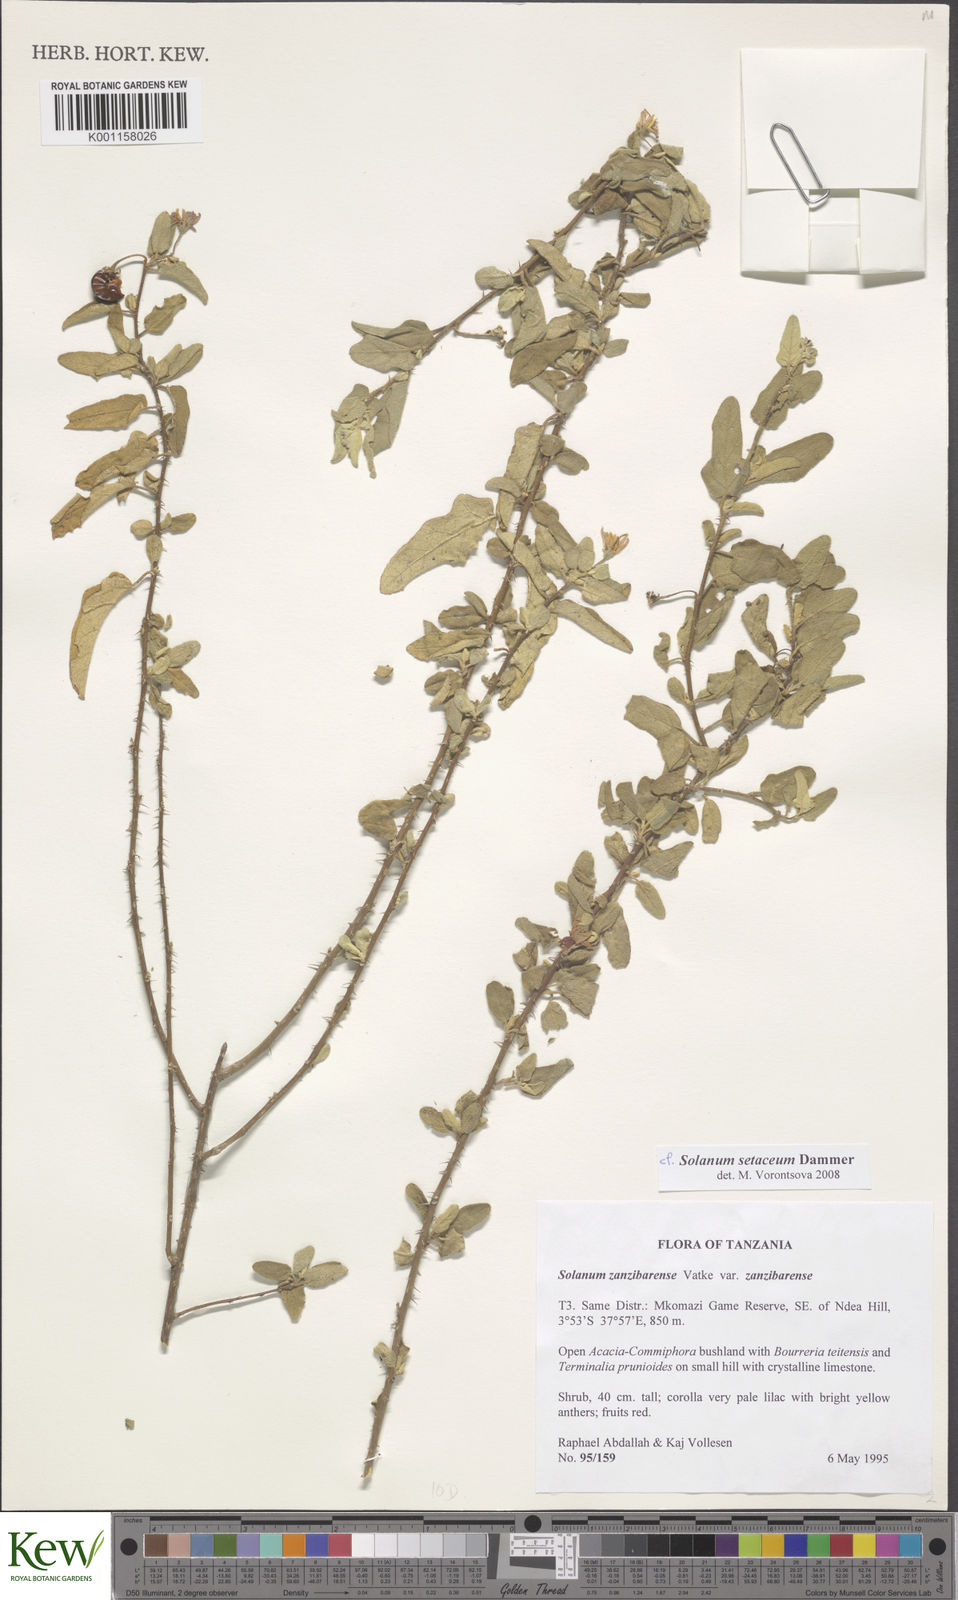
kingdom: Plantae
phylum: Tracheophyta
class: Magnoliopsida
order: Solanales
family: Solanaceae
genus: Solanum
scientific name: Solanum setaceum
